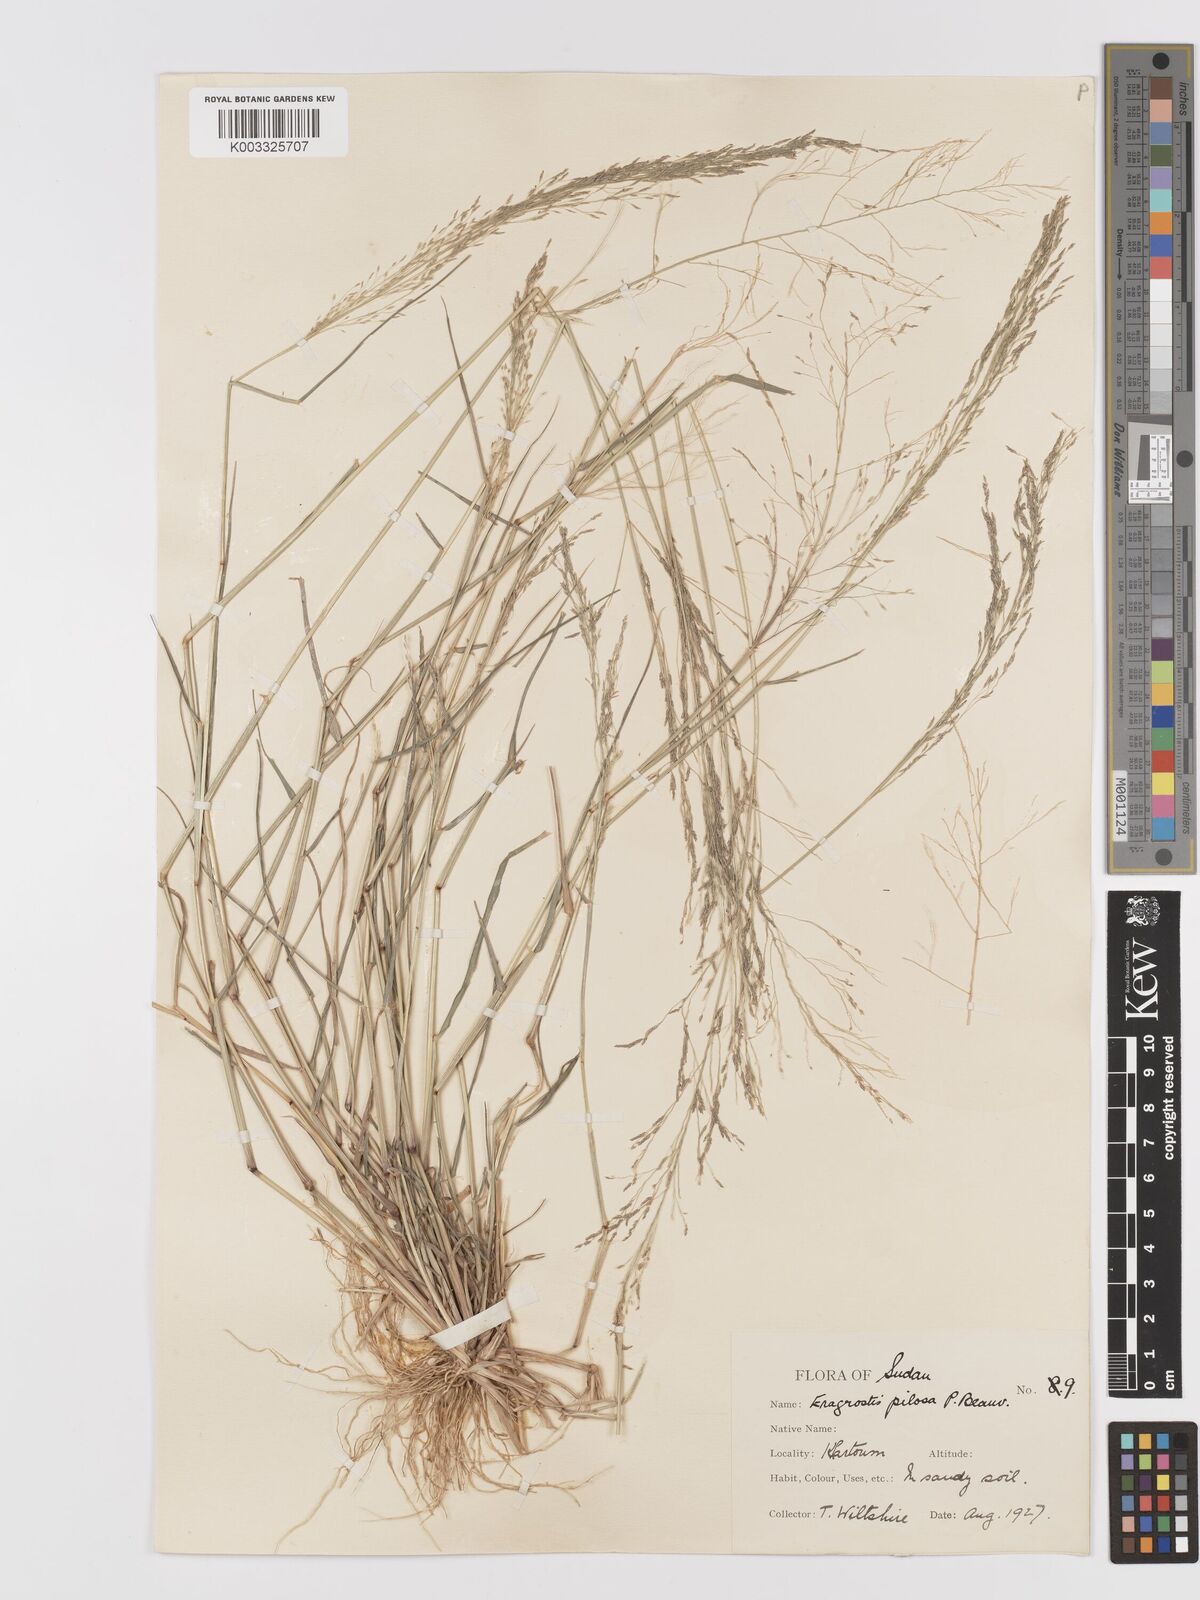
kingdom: Plantae
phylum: Tracheophyta
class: Liliopsida
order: Poales
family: Poaceae
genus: Eragrostis
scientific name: Eragrostis pilosa
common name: Indian lovegrass
